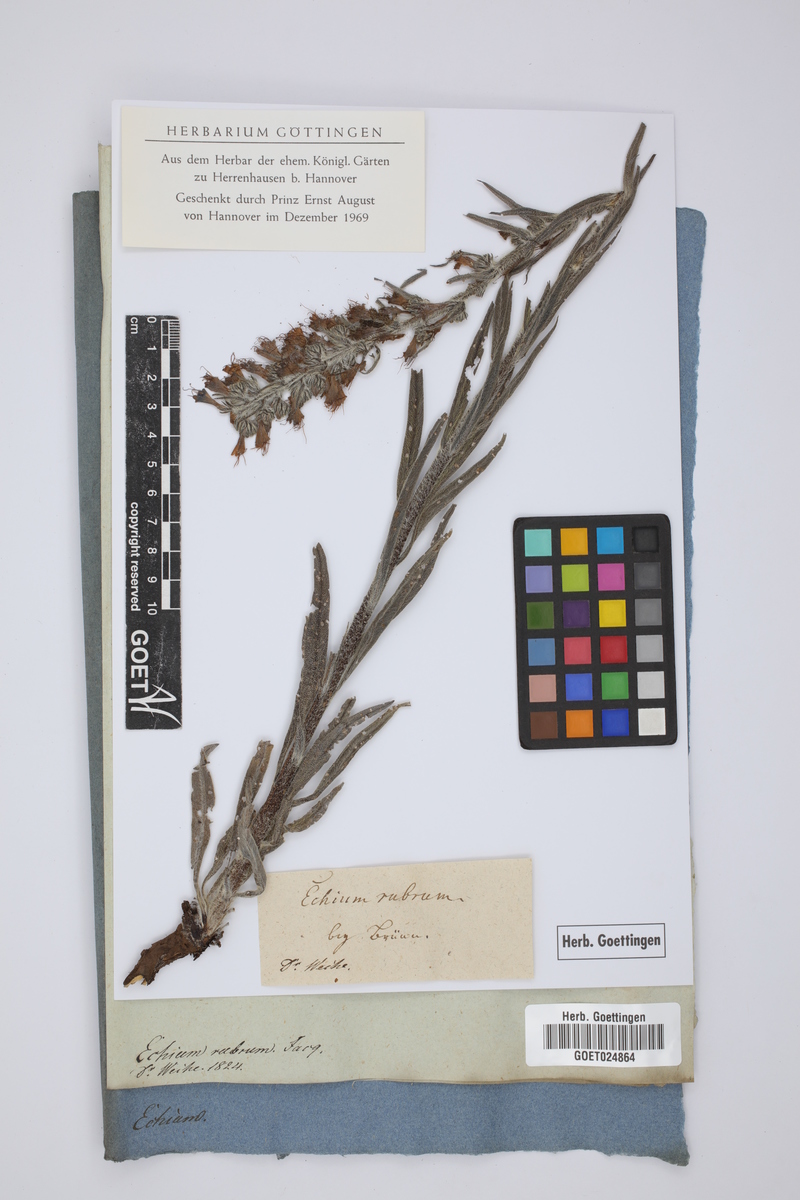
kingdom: Plantae
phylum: Tracheophyta
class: Magnoliopsida
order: Boraginales
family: Boraginaceae
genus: Pontechium
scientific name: Pontechium maculatum
